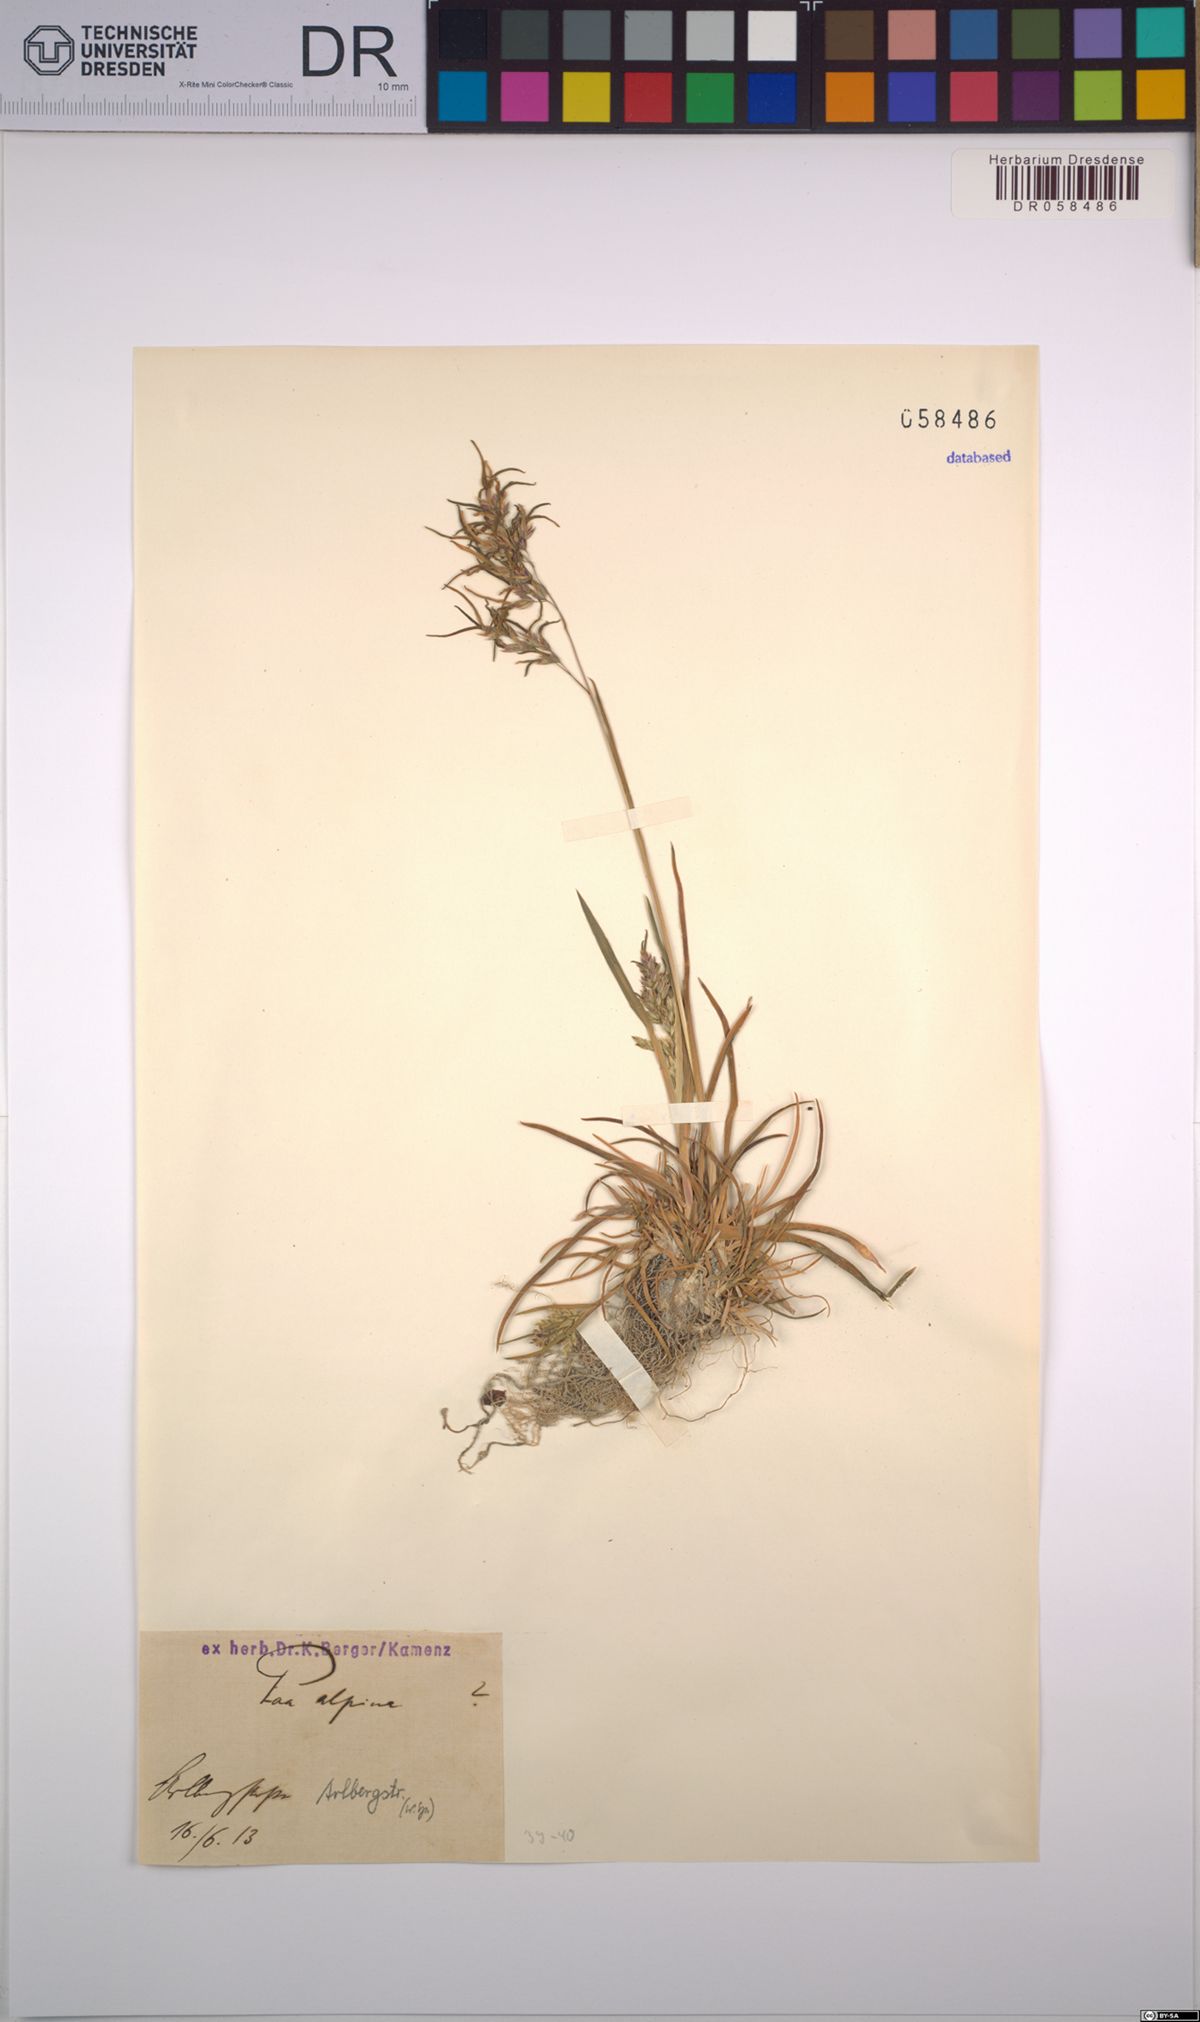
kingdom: Plantae
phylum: Tracheophyta
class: Liliopsida
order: Poales
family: Poaceae
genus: Poa
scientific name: Poa alpina
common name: Alpine bluegrass
